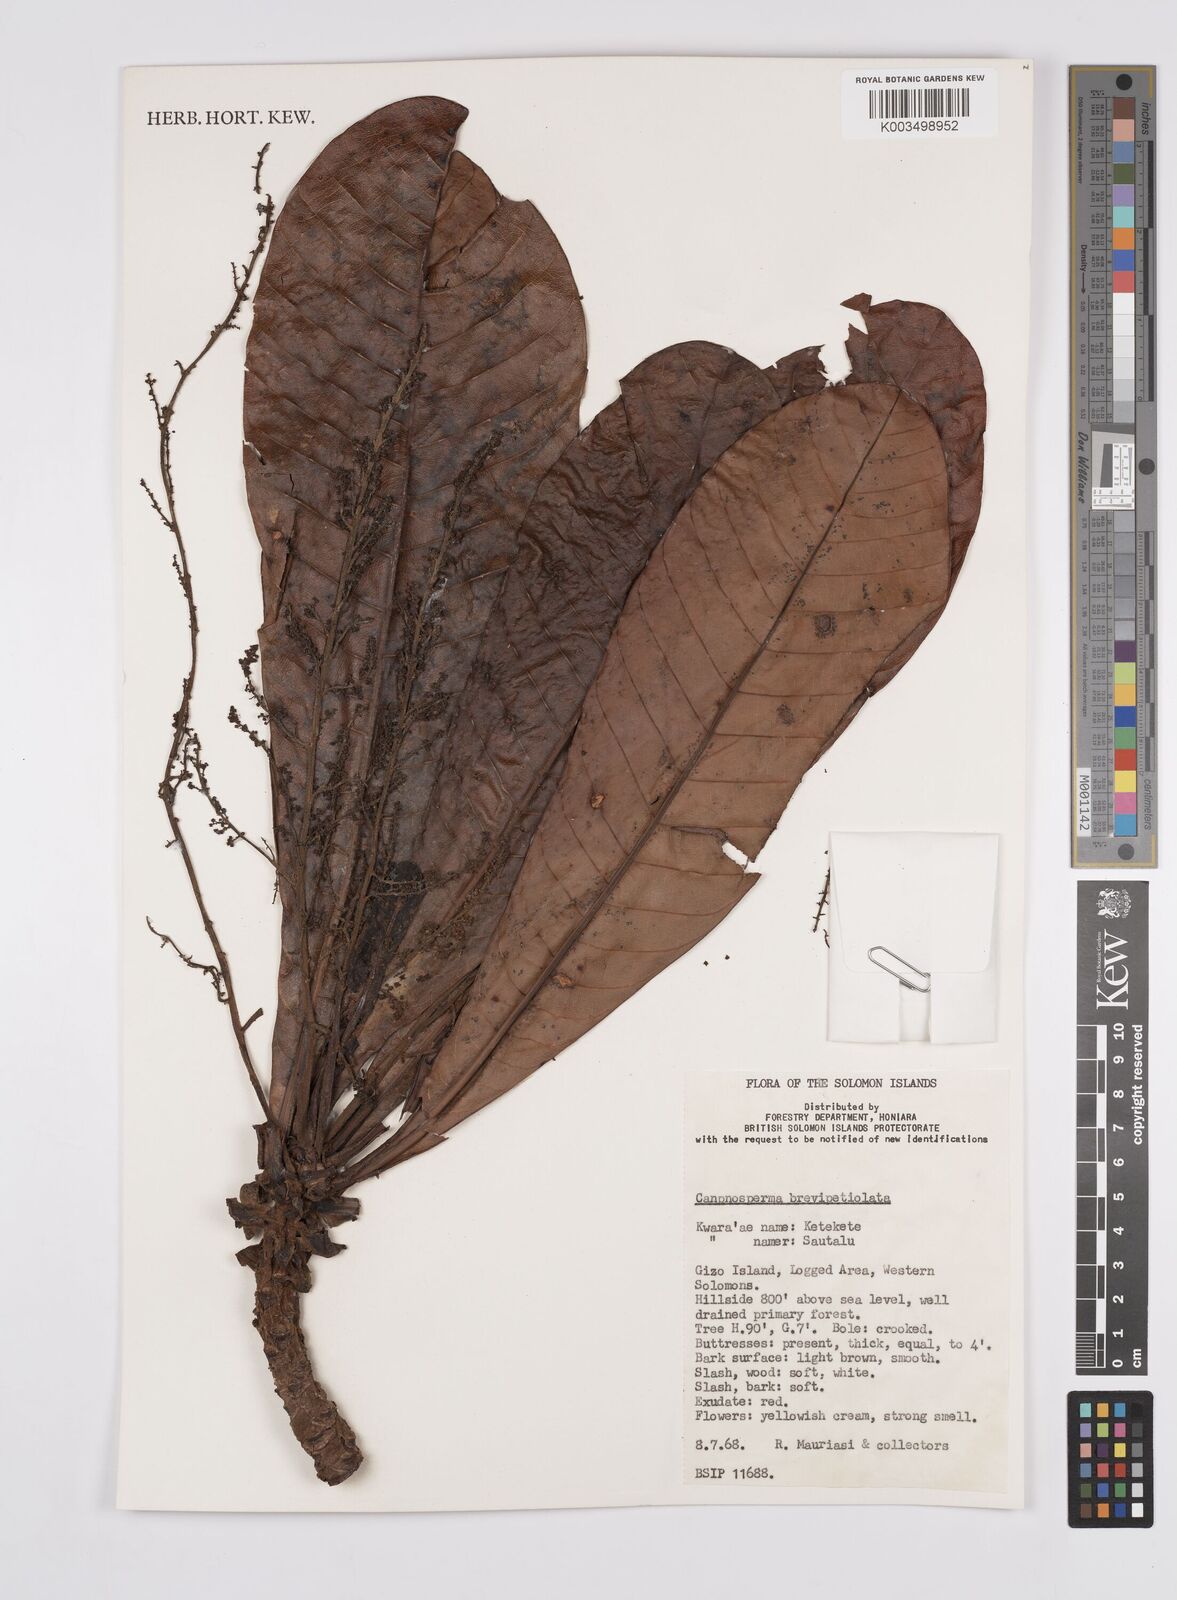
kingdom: Plantae
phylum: Tracheophyta
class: Magnoliopsida
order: Sapindales
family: Anacardiaceae
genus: Campnosperma
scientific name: Campnosperma brevipetiolatum
